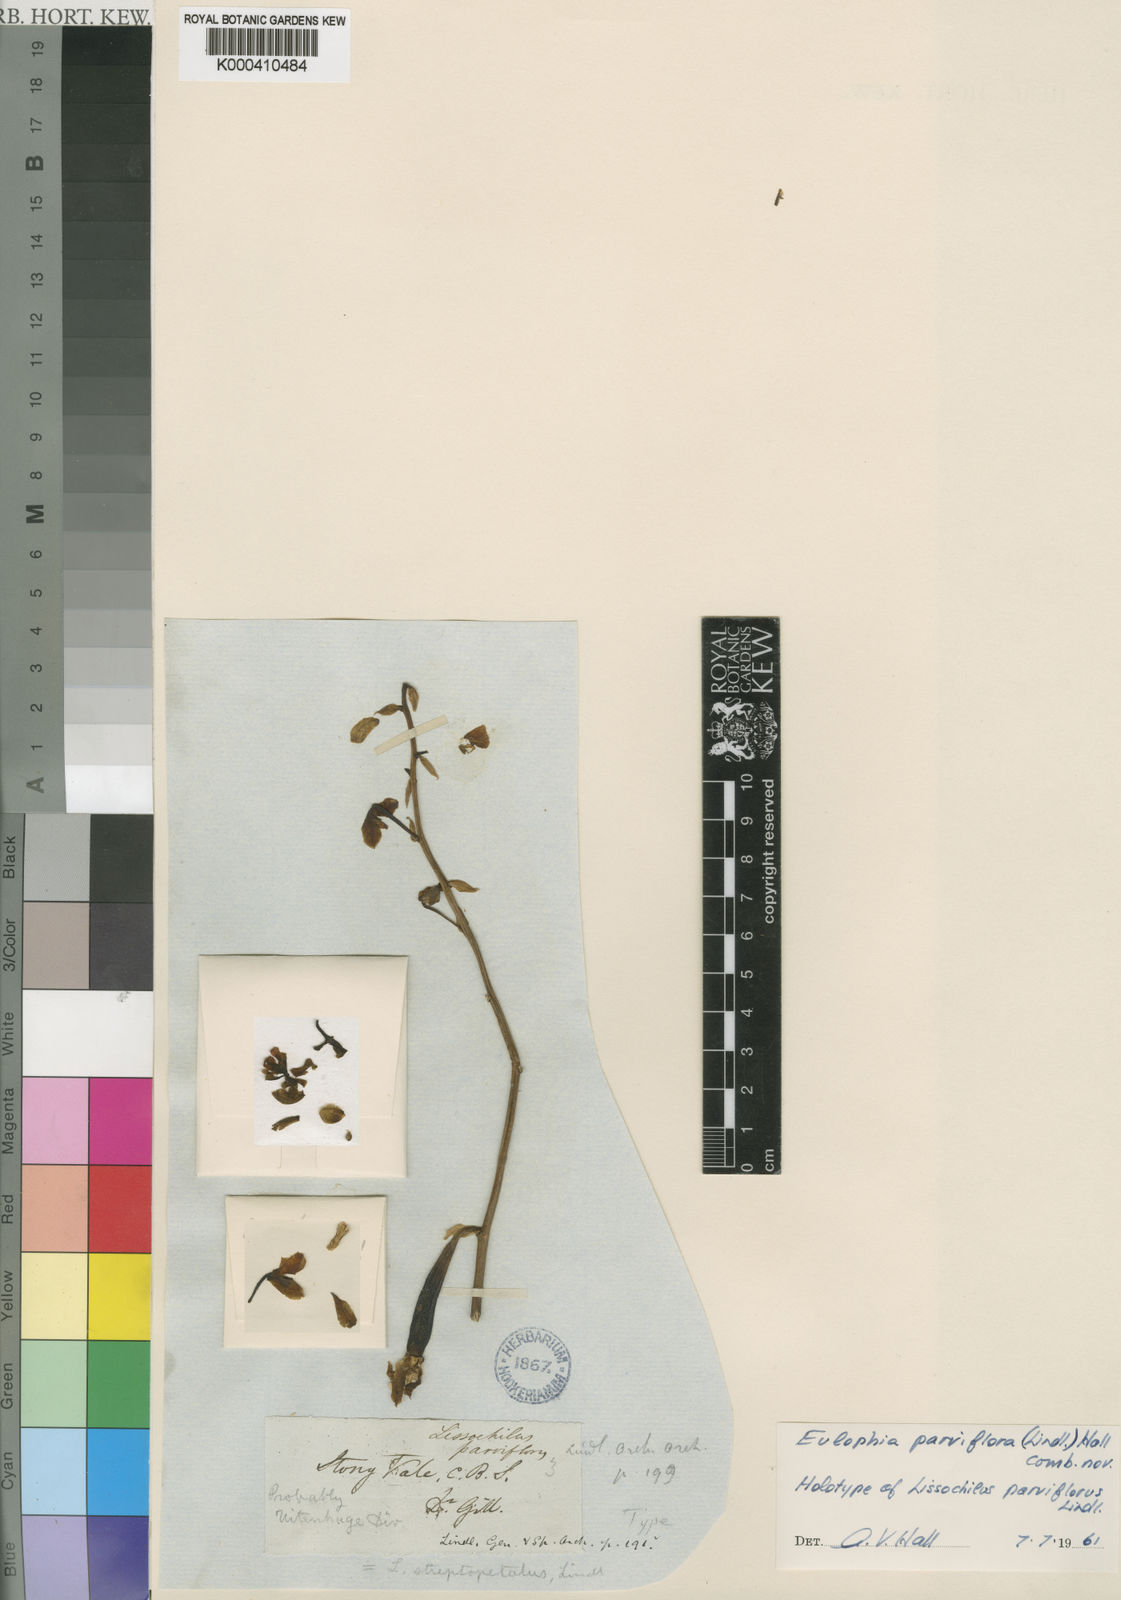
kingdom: Plantae
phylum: Tracheophyta
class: Liliopsida
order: Asparagales
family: Orchidaceae
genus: Eulophia
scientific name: Eulophia parviflora
